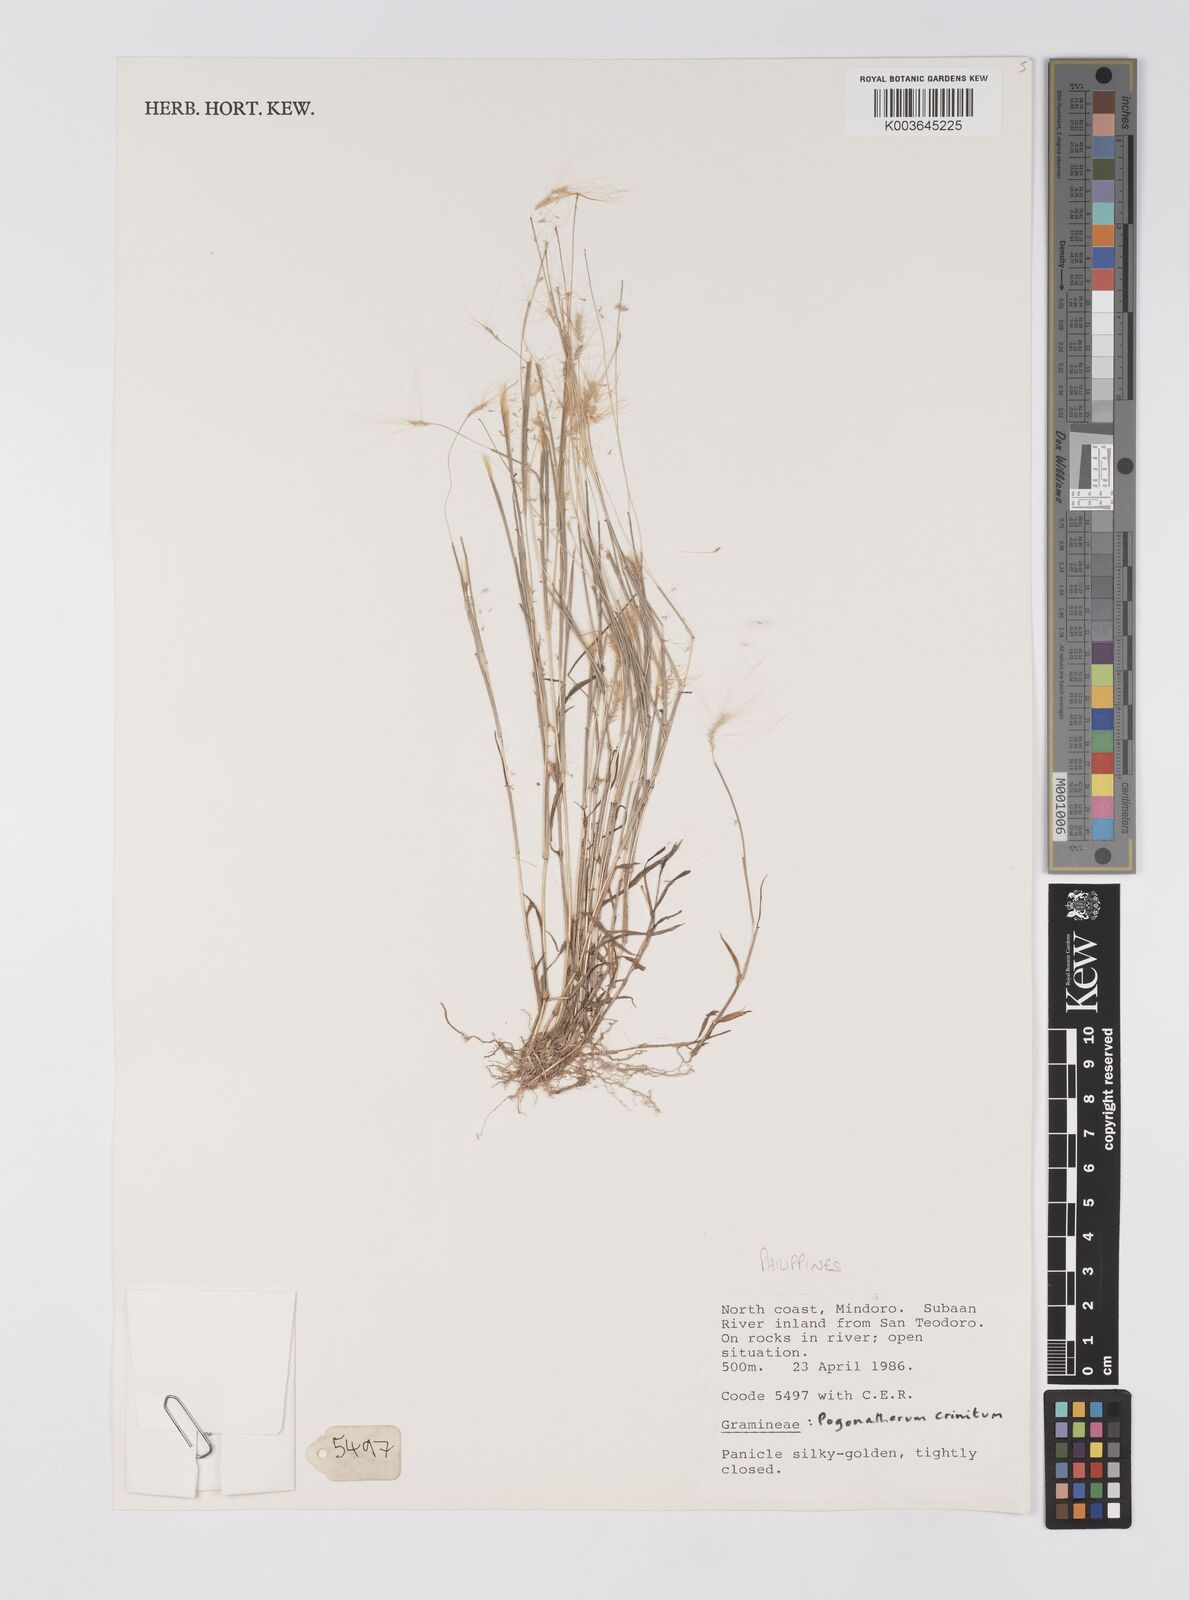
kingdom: Plantae
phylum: Tracheophyta
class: Liliopsida
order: Poales
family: Poaceae
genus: Pogonatherum
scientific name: Pogonatherum crinitum
